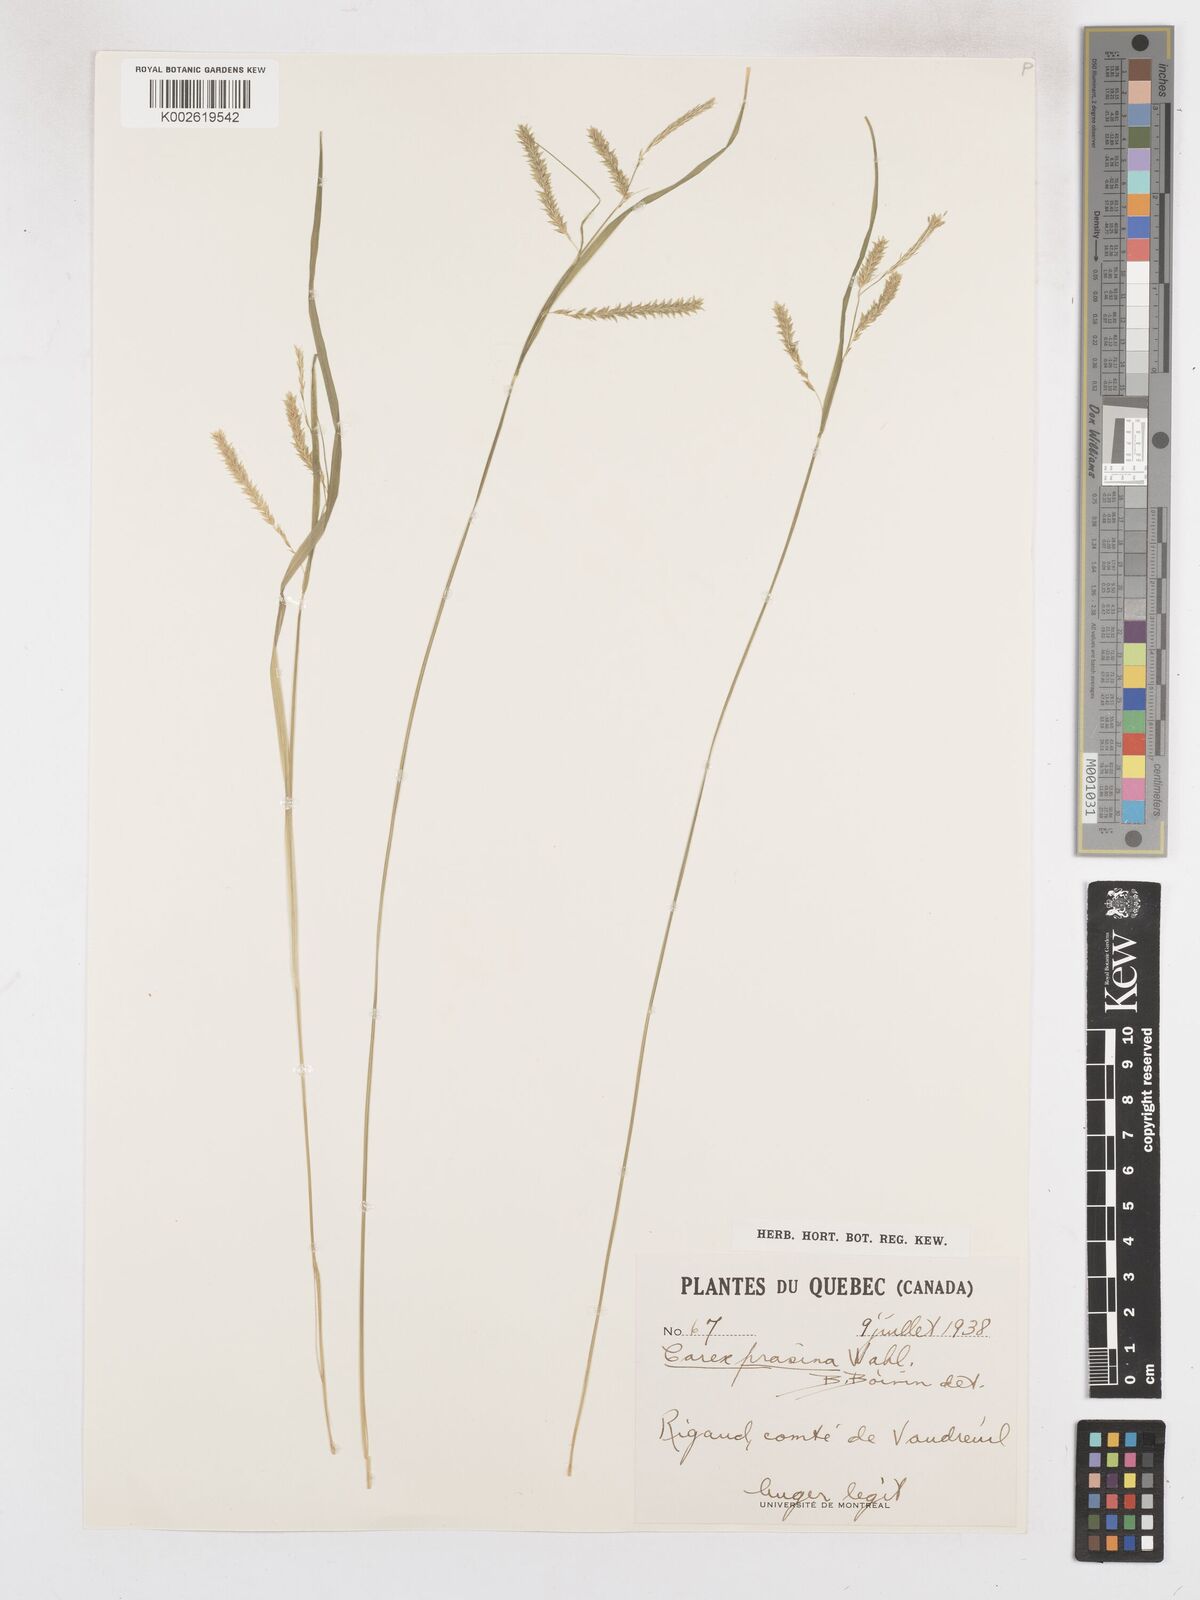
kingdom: Plantae
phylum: Tracheophyta
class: Liliopsida
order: Poales
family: Cyperaceae
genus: Carex
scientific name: Carex prasina
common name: Drooping sedge
